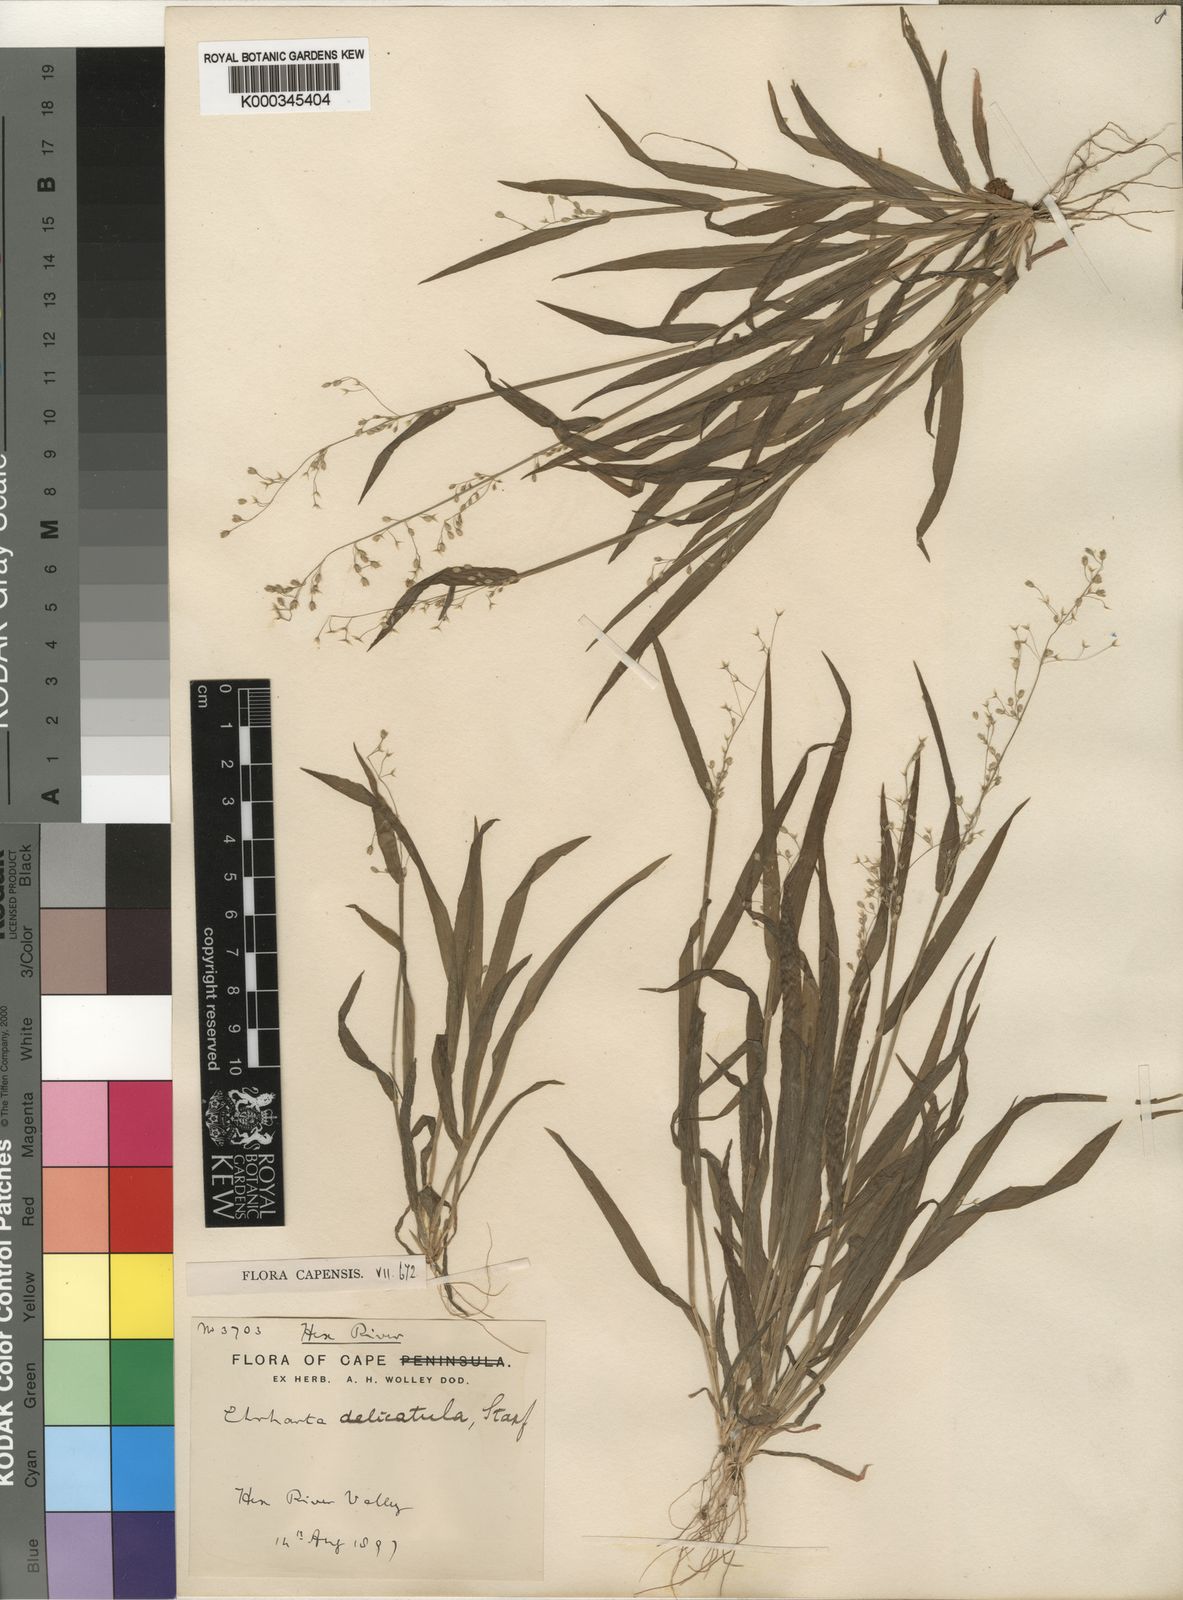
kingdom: Plantae
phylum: Tracheophyta
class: Liliopsida
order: Poales
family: Poaceae
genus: Ehrharta
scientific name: Ehrharta delicatula
